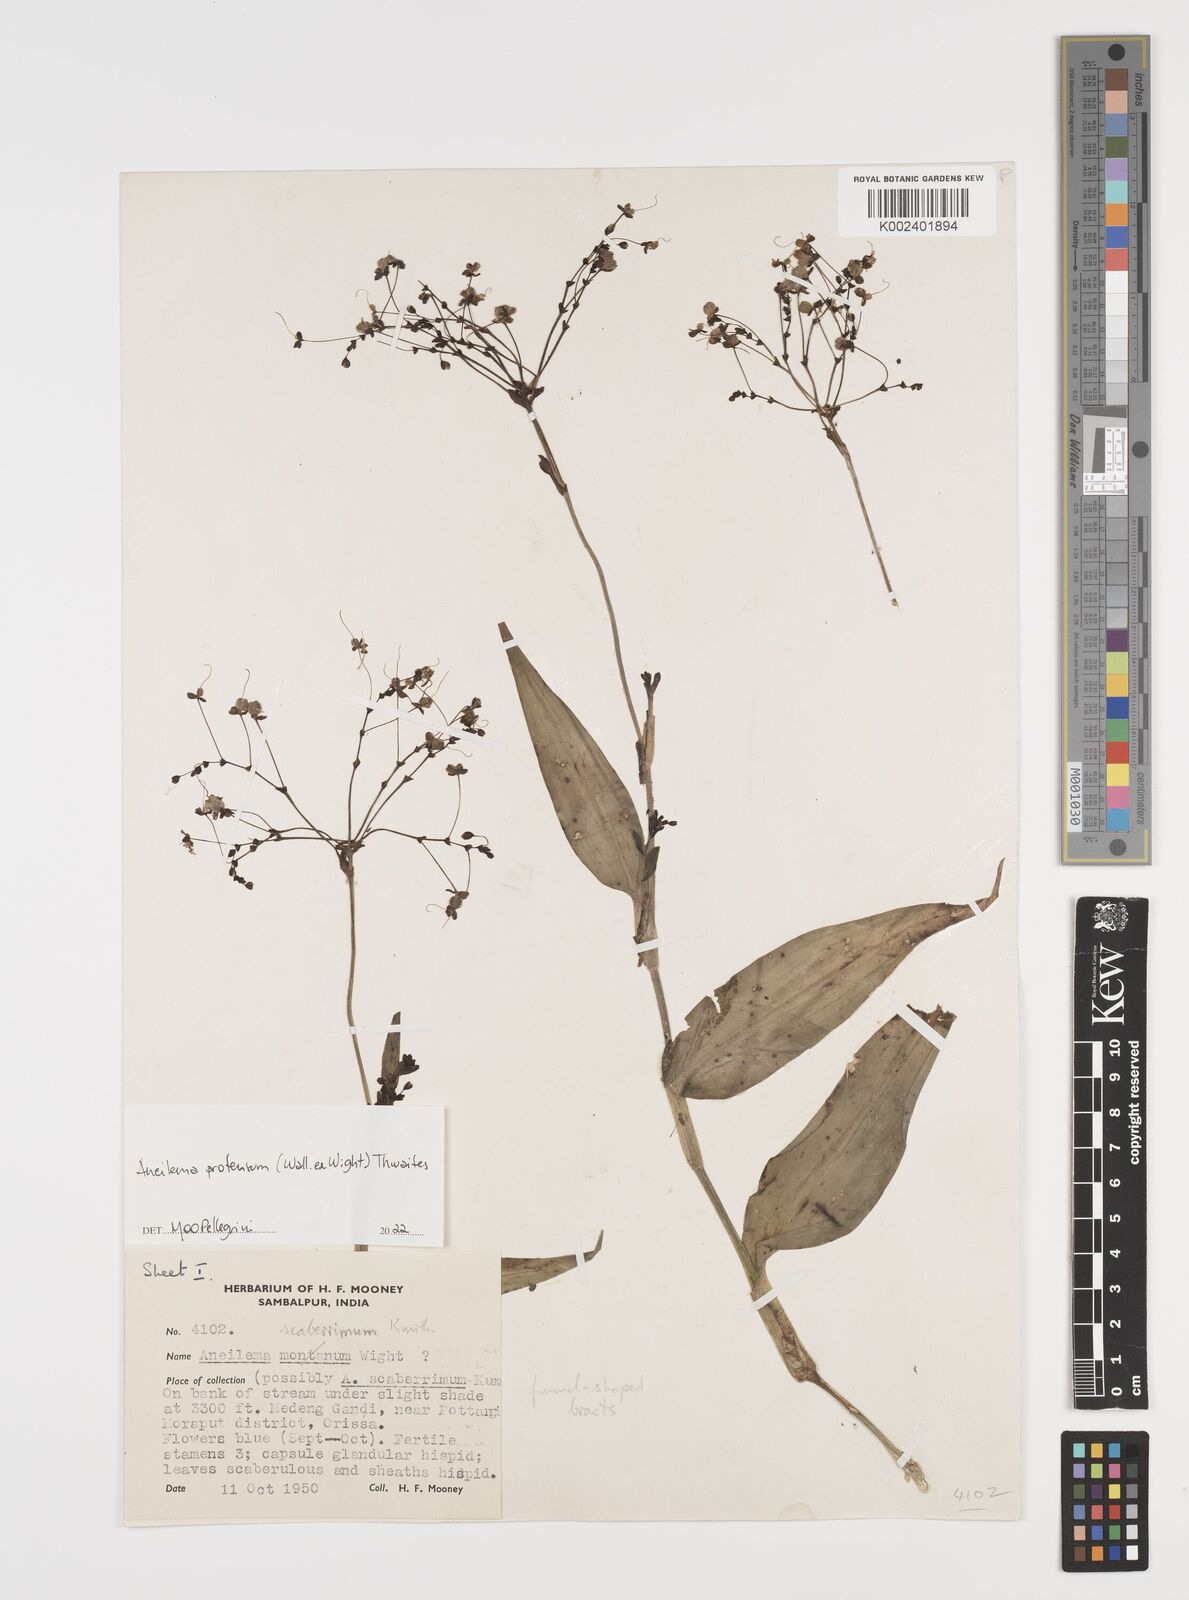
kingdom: Plantae
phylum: Tracheophyta
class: Liliopsida
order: Commelinales
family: Commelinaceae
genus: Rhopalephora
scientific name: Rhopalephora
